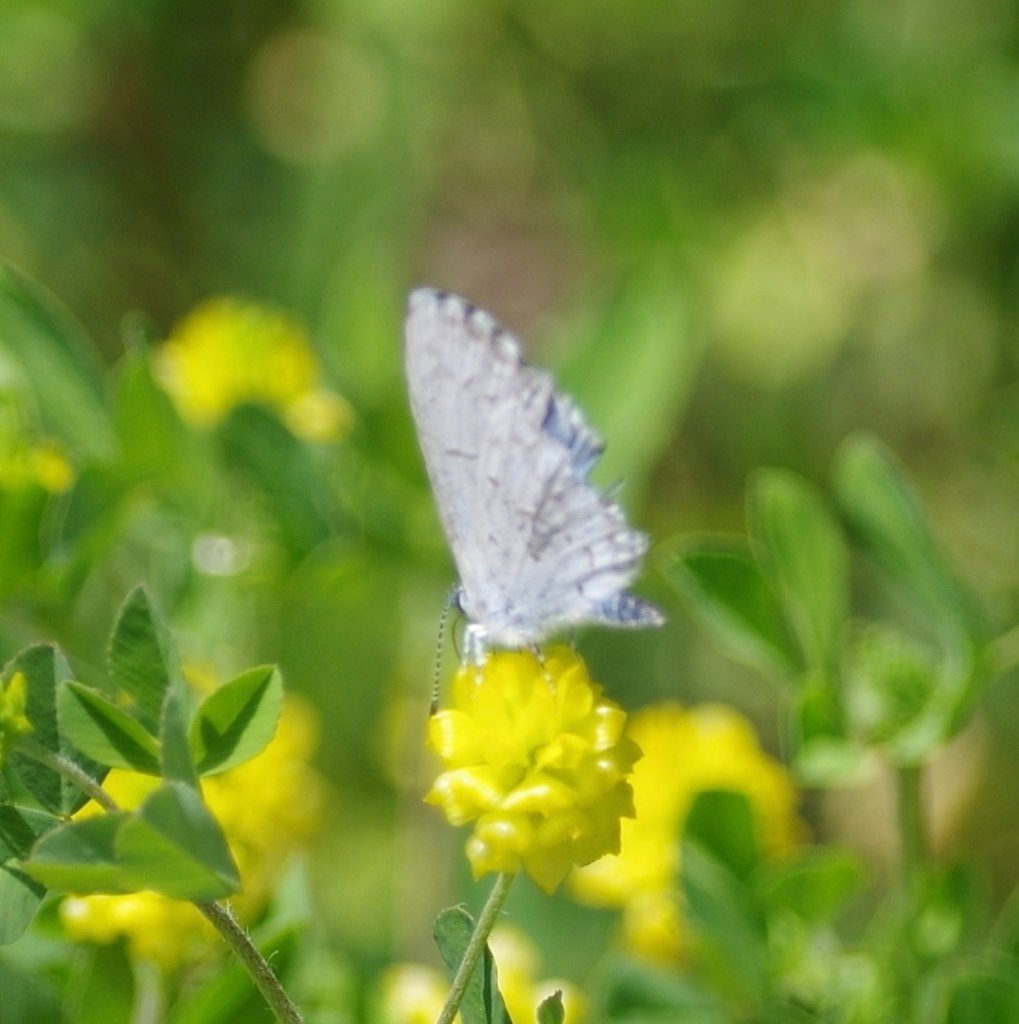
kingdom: Animalia
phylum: Arthropoda
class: Insecta
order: Lepidoptera
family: Lycaenidae
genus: Celastrina
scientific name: Celastrina
